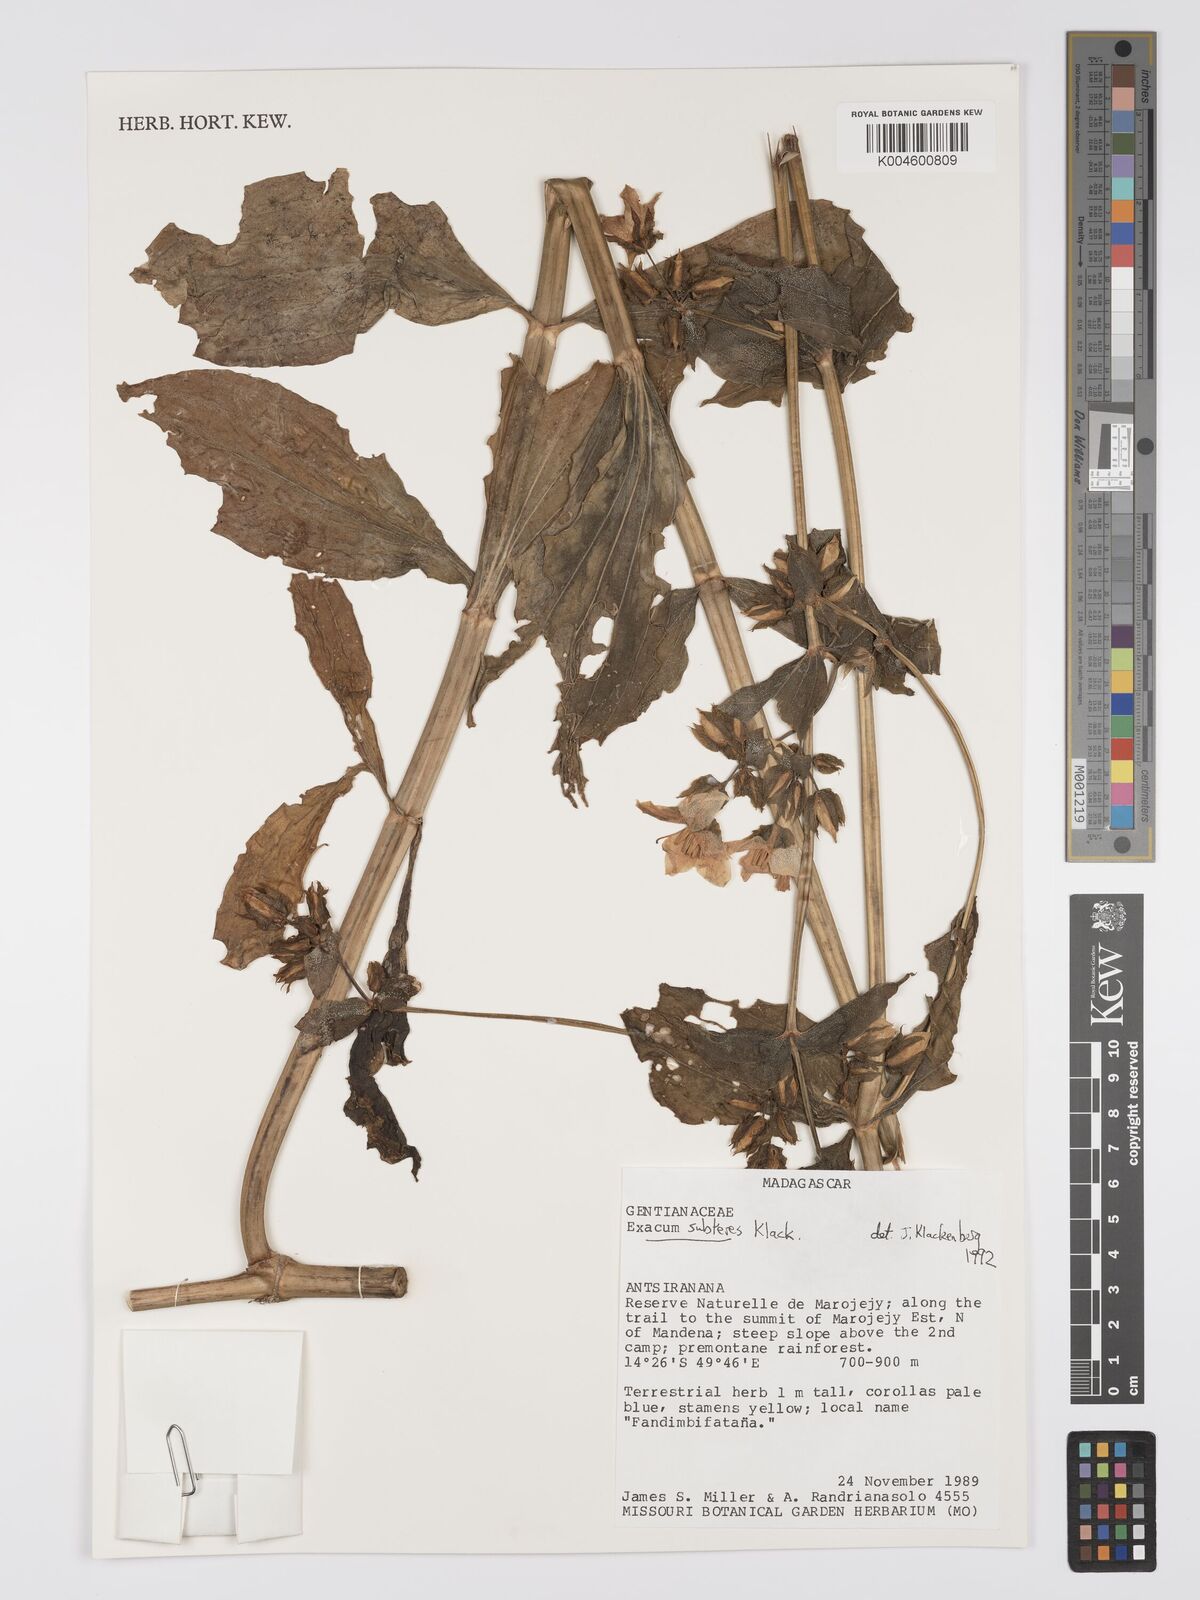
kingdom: Plantae
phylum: Tracheophyta
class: Magnoliopsida
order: Gentianales
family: Gentianaceae
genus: Exacum
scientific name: Exacum subteres
